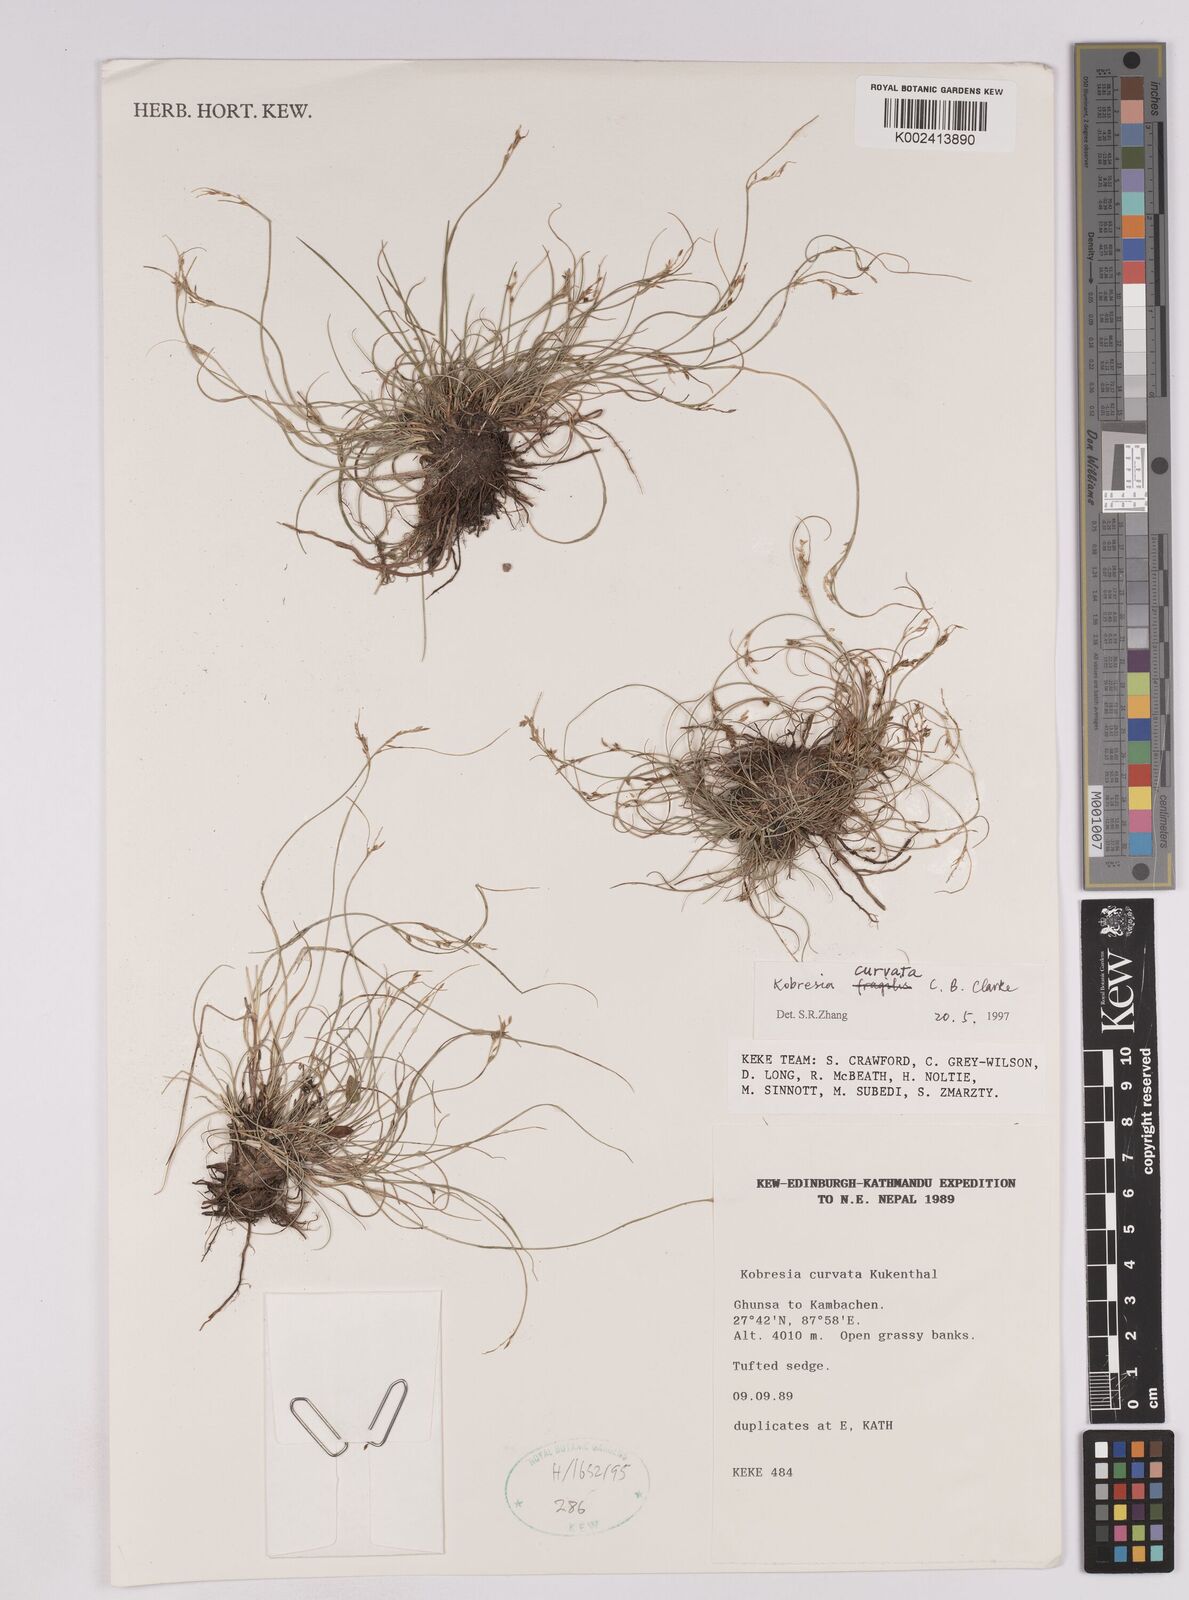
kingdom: Plantae
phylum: Tracheophyta
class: Liliopsida
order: Poales
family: Cyperaceae
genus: Carex
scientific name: Carex bonatiana
